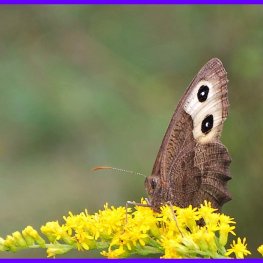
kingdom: Animalia
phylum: Arthropoda
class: Insecta
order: Lepidoptera
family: Nymphalidae
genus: Cercyonis
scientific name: Cercyonis pegala
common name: Common Wood-Nymph
